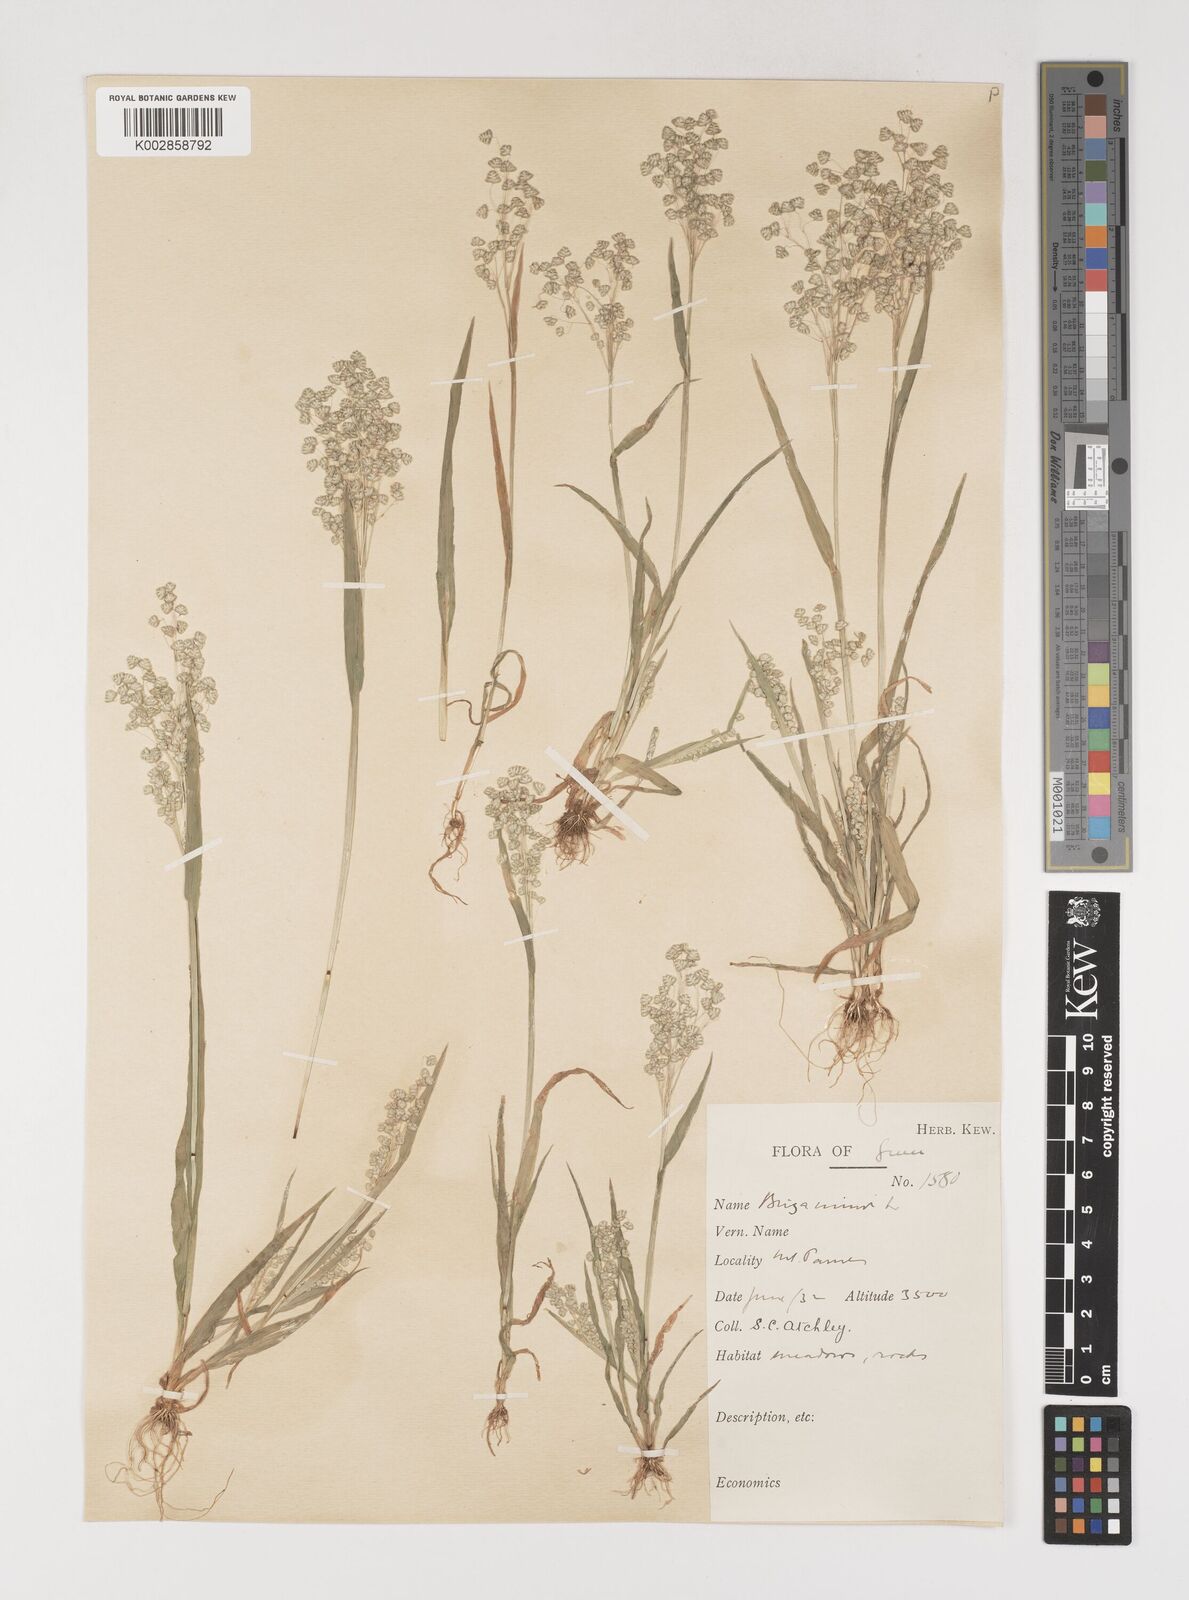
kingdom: Plantae
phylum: Tracheophyta
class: Liliopsida
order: Poales
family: Poaceae
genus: Briza
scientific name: Briza minor
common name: Lesser quaking-grass
